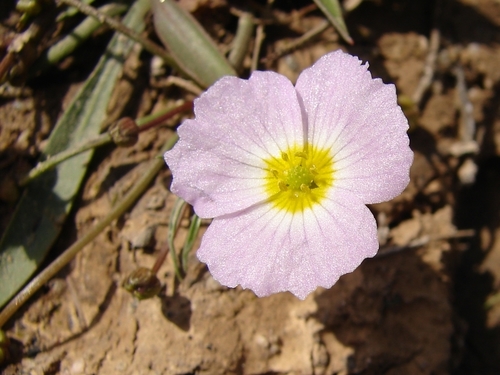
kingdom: Plantae
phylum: Tracheophyta
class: Liliopsida
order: Alismatales
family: Alismataceae
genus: Baldellia
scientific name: Baldellia ranunculoides
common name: Lesser water-plantain
